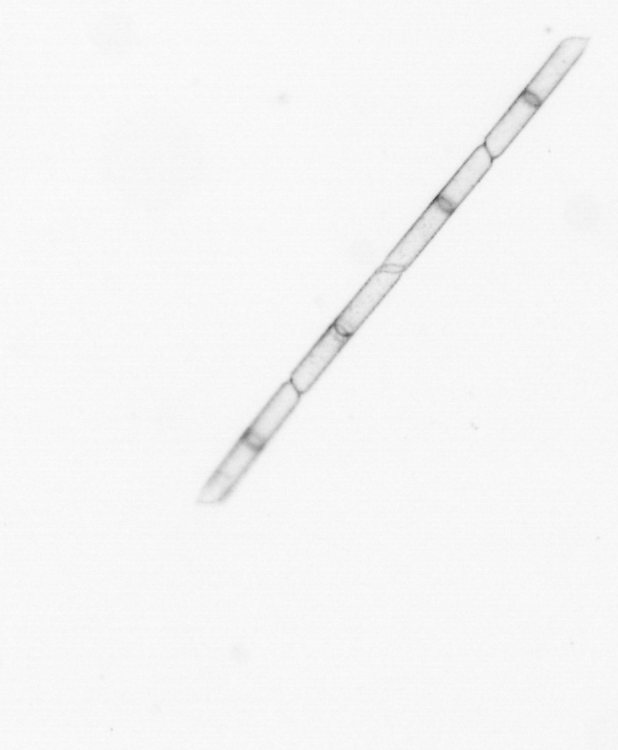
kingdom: Chromista
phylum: Ochrophyta
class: Bacillariophyceae
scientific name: Bacillariophyceae
